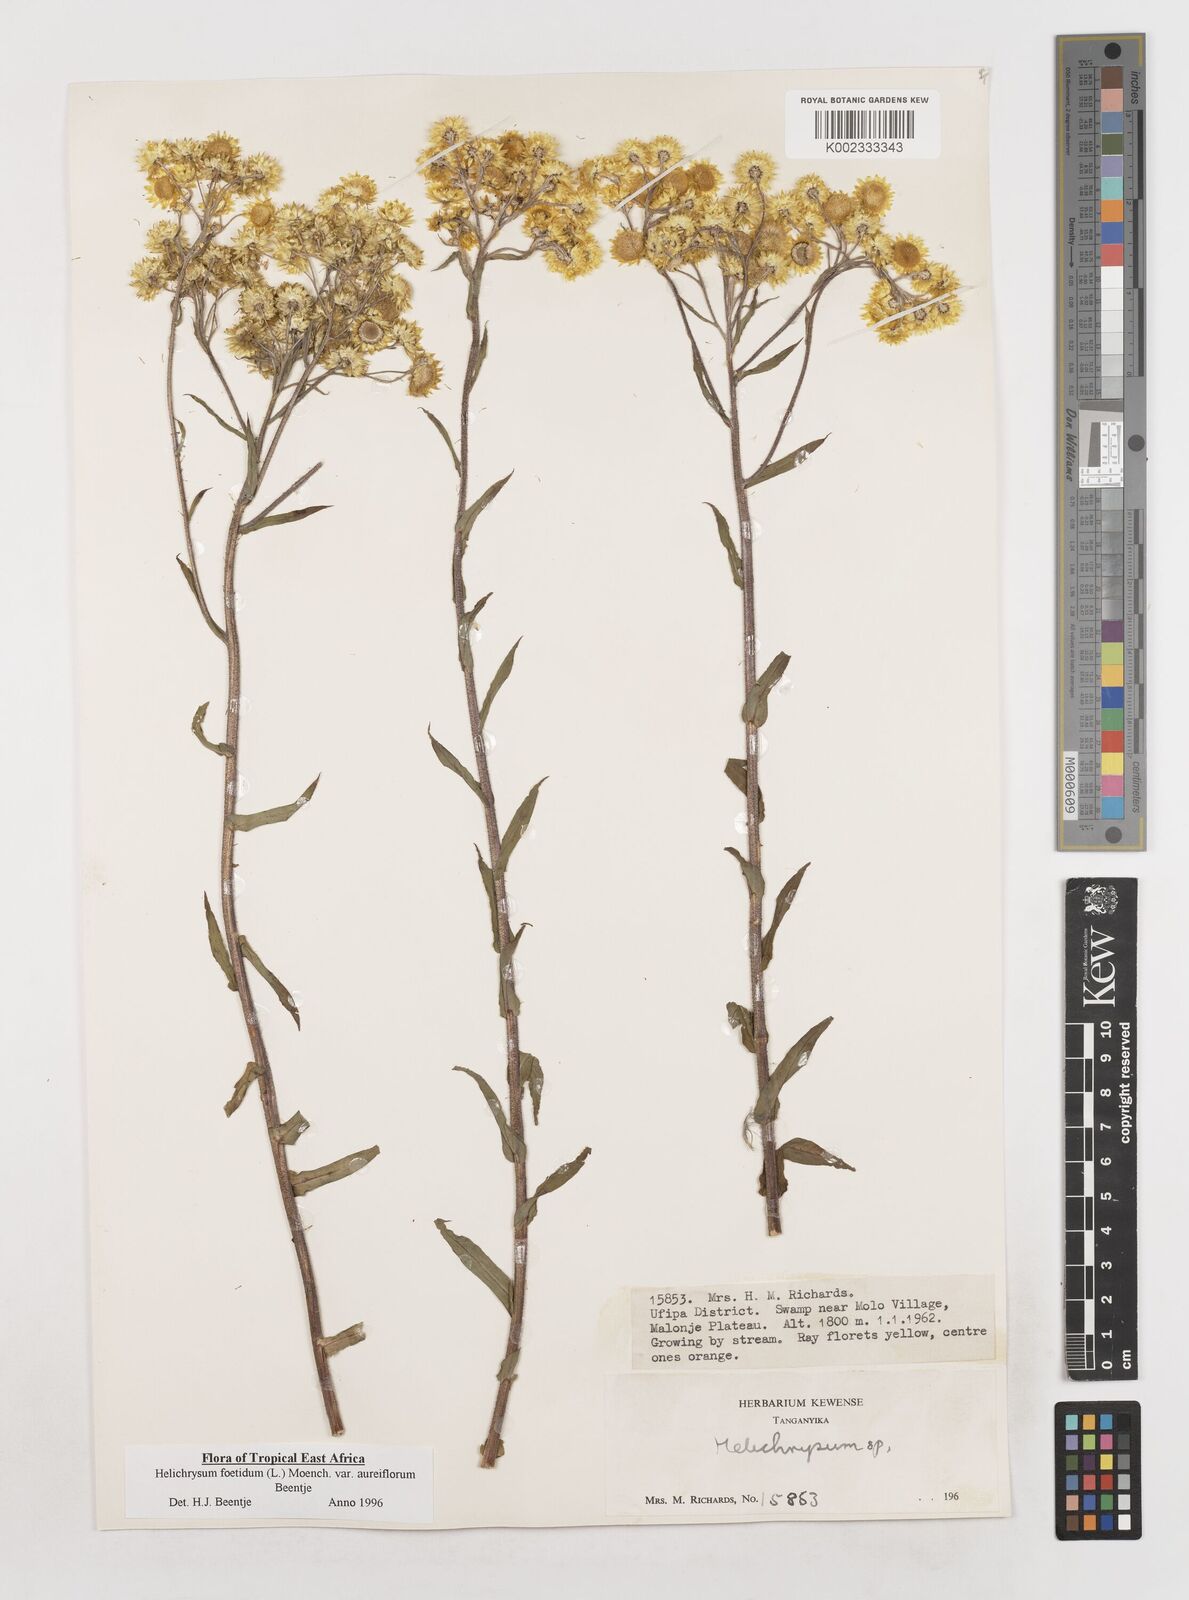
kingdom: Plantae
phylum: Tracheophyta
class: Magnoliopsida
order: Asterales
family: Asteraceae
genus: Helichrysum
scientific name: Helichrysum foetidum
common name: Stinking everlasting
